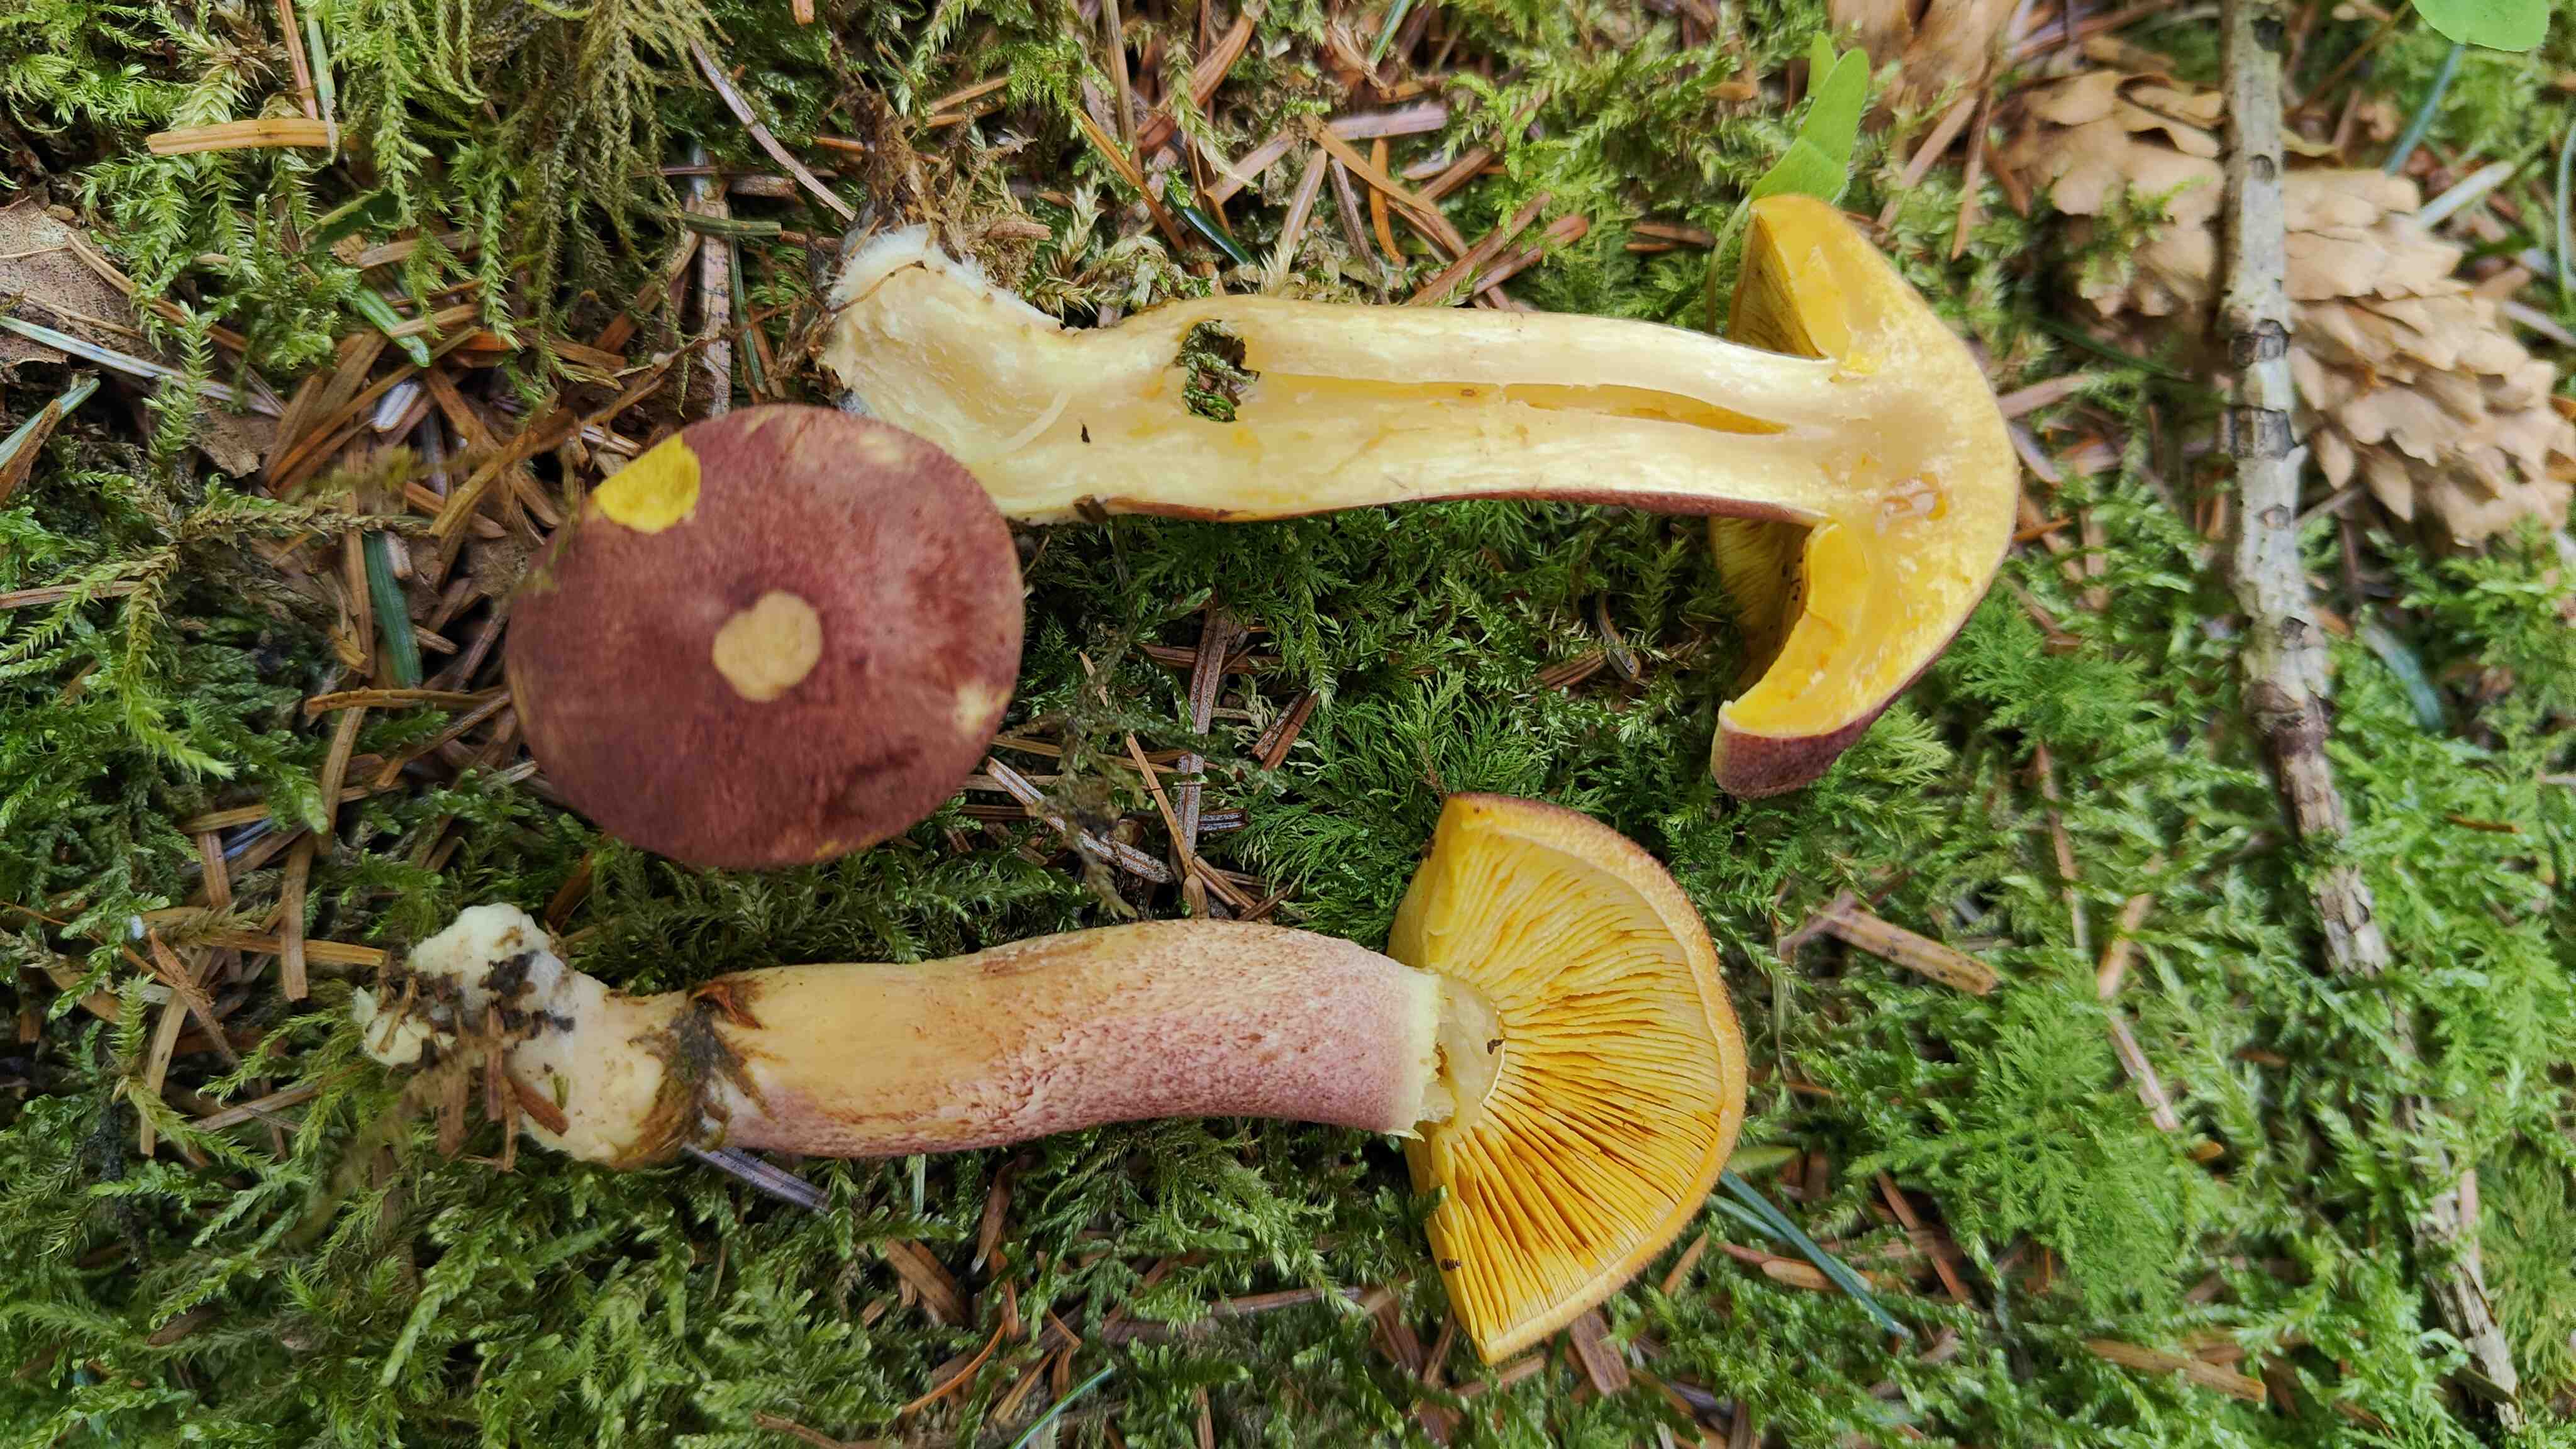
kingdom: Fungi
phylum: Basidiomycota
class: Agaricomycetes
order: Agaricales
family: Tricholomataceae
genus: Tricholomopsis
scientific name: Tricholomopsis rutilans
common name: purpur-væbnerhat
